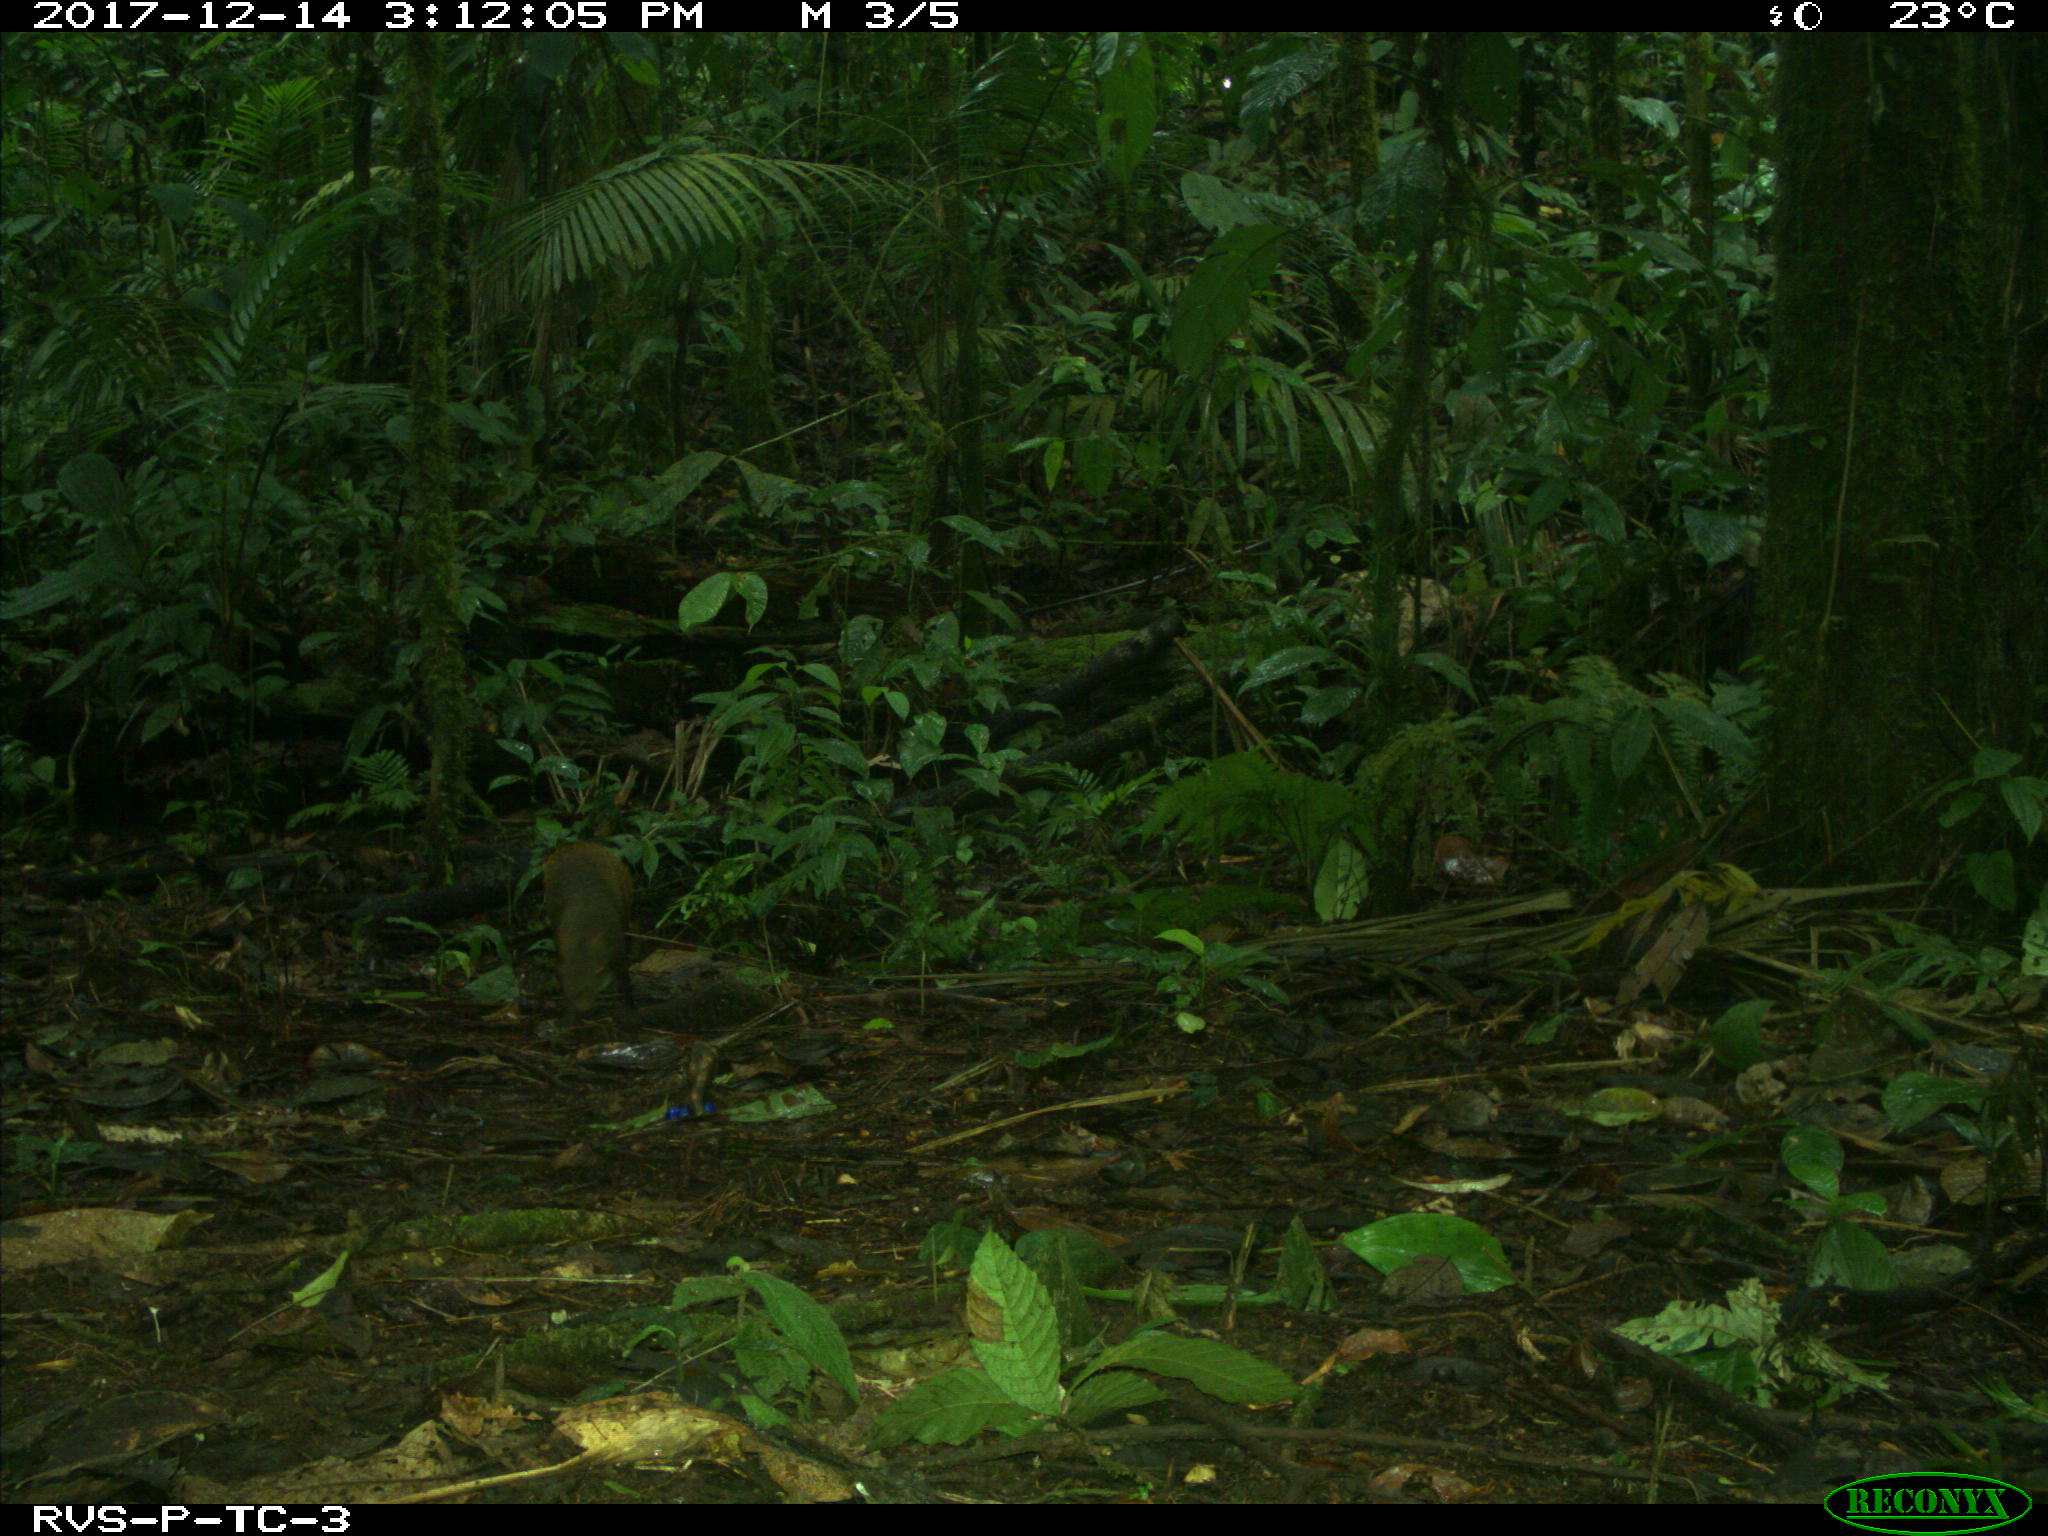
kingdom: Animalia
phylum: Chordata
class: Mammalia
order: Rodentia
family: Dasyproctidae
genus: Dasyprocta
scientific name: Dasyprocta punctata
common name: Central american agouti
